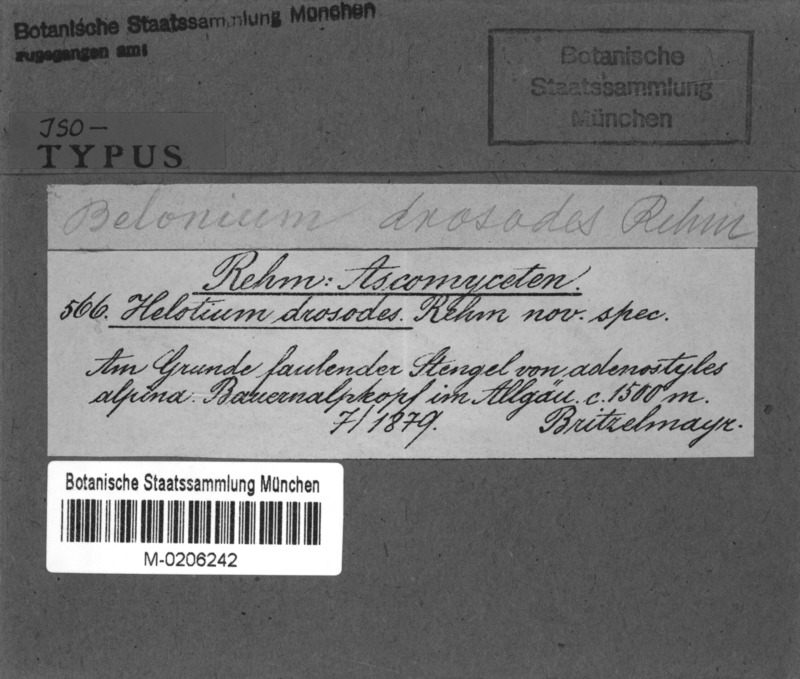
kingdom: Fungi
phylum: Ascomycota
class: Leotiomycetes
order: Helotiales
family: Pezizellaceae
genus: Calycina
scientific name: Calycina drosodes
